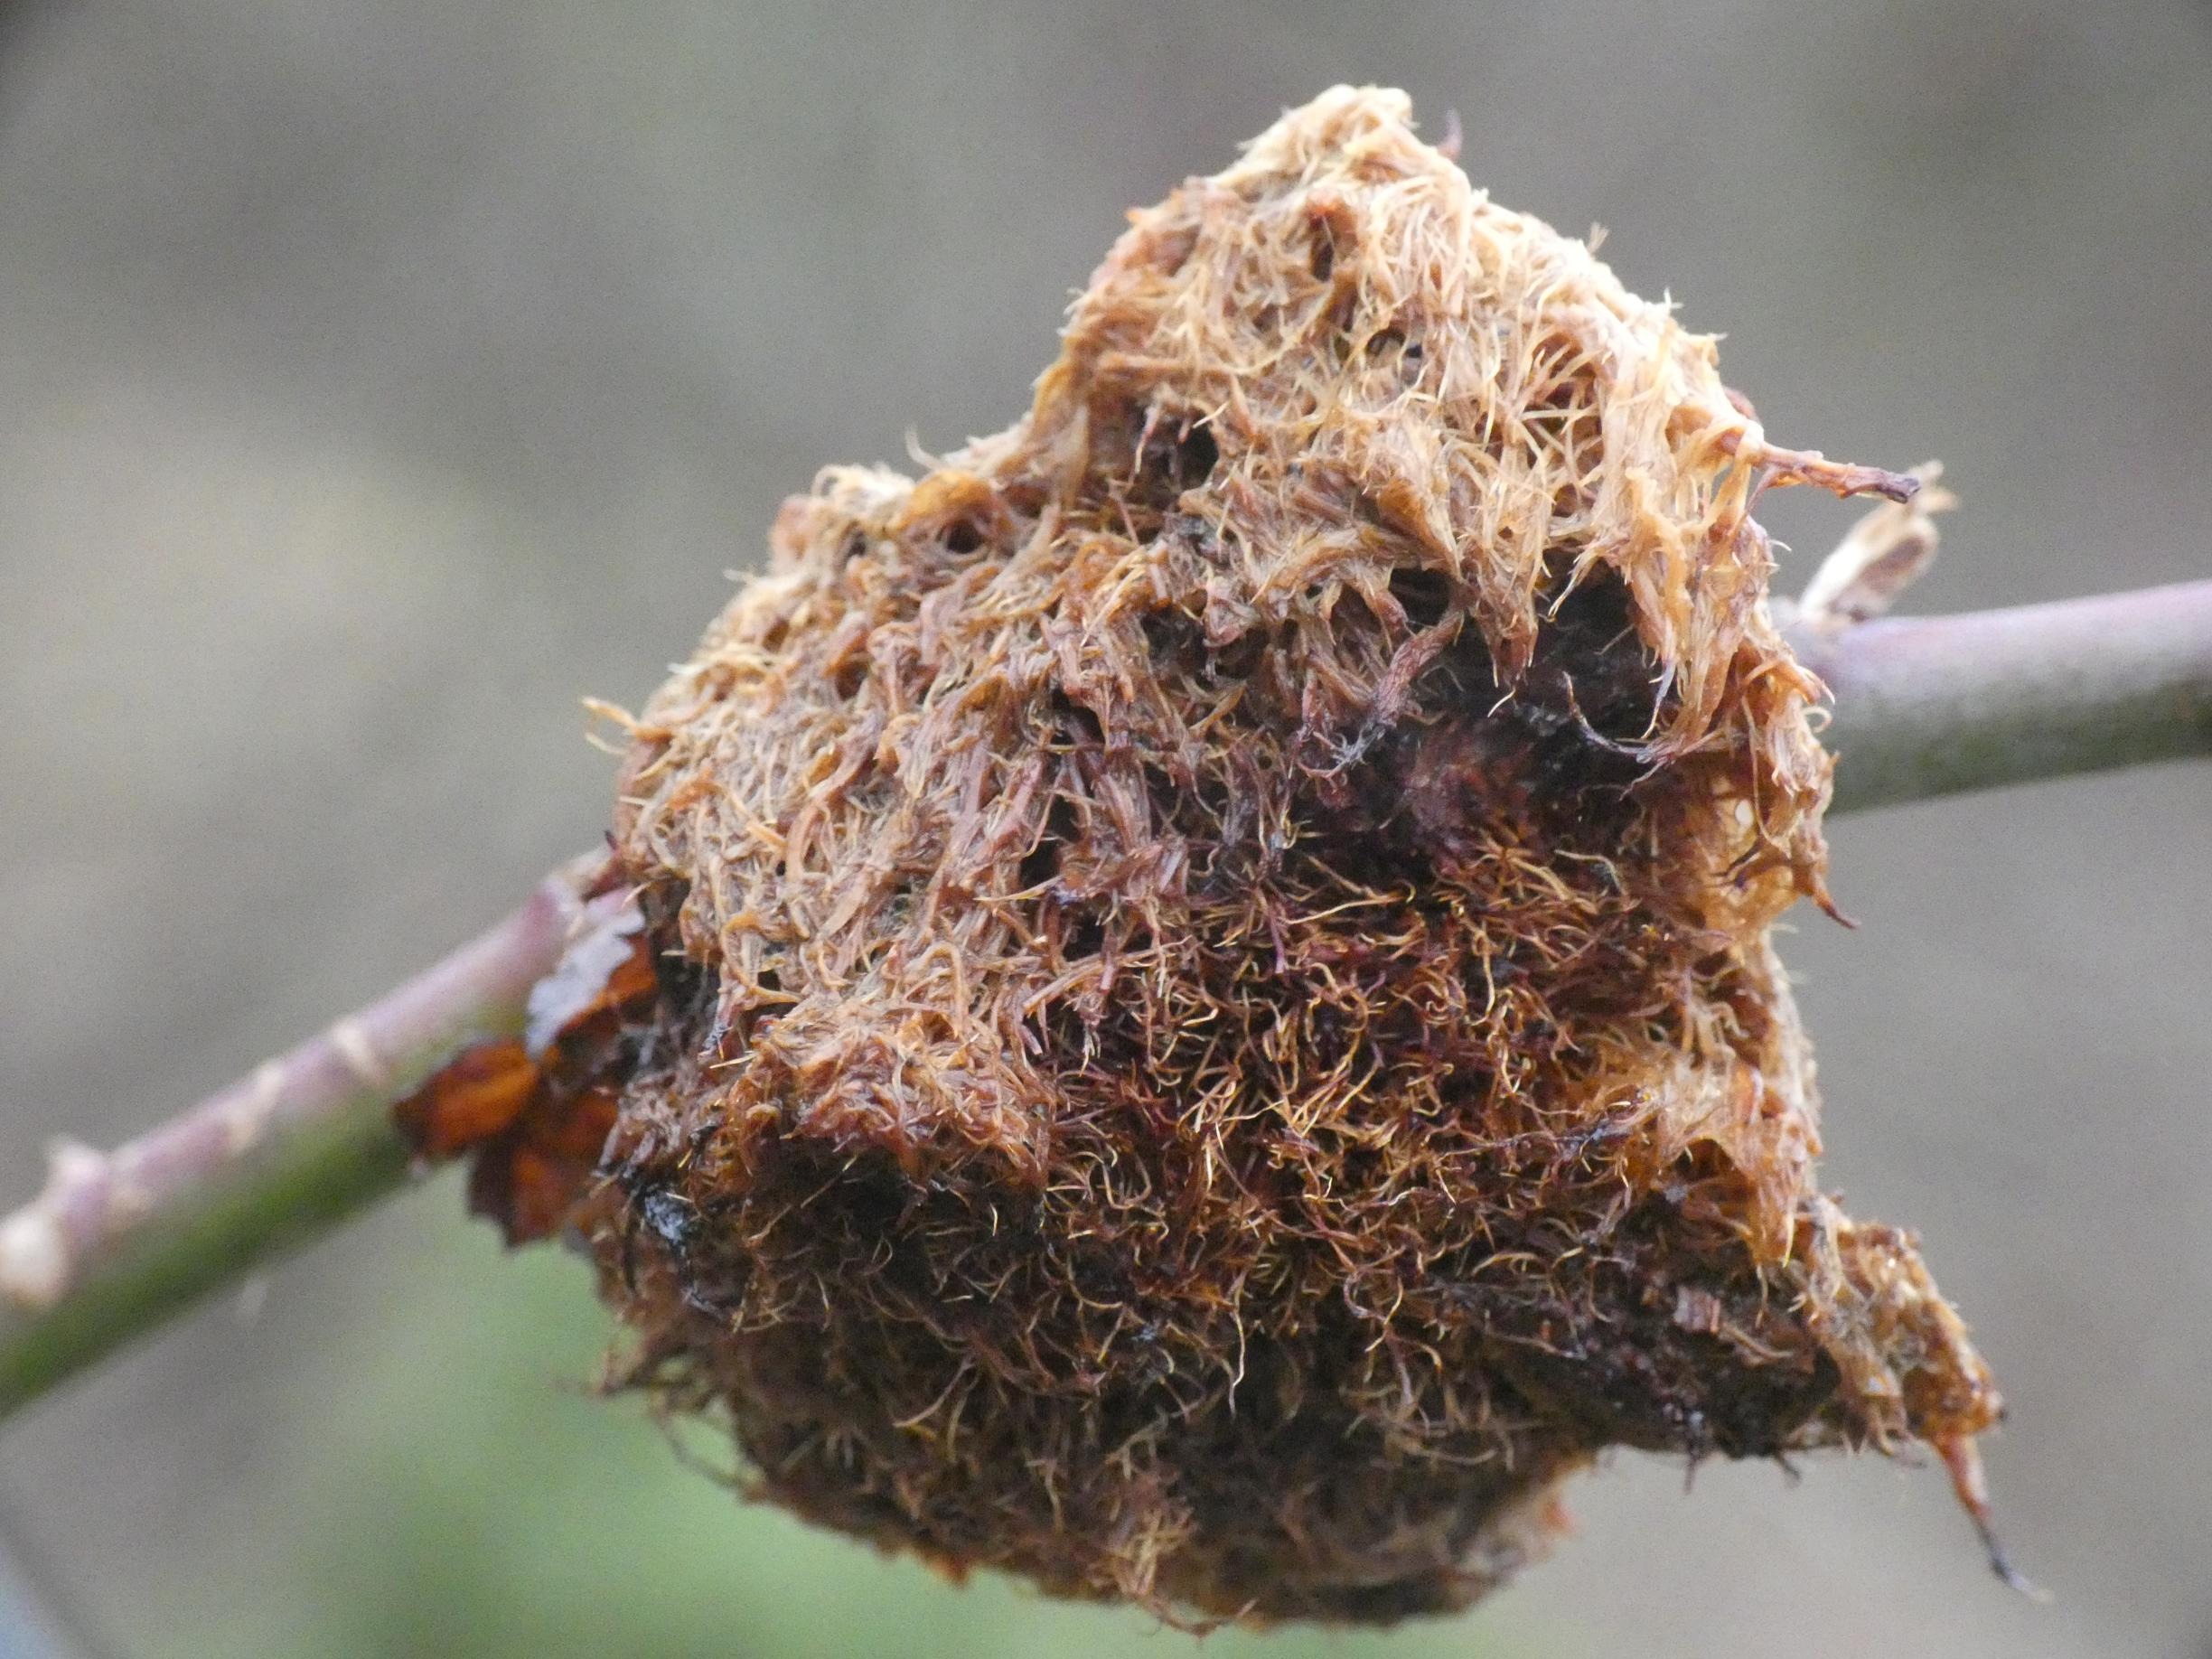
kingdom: Animalia
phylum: Arthropoda
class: Insecta
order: Hymenoptera
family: Cynipidae
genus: Diplolepis
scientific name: Diplolepis rosae
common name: Bedeguargalhveps
